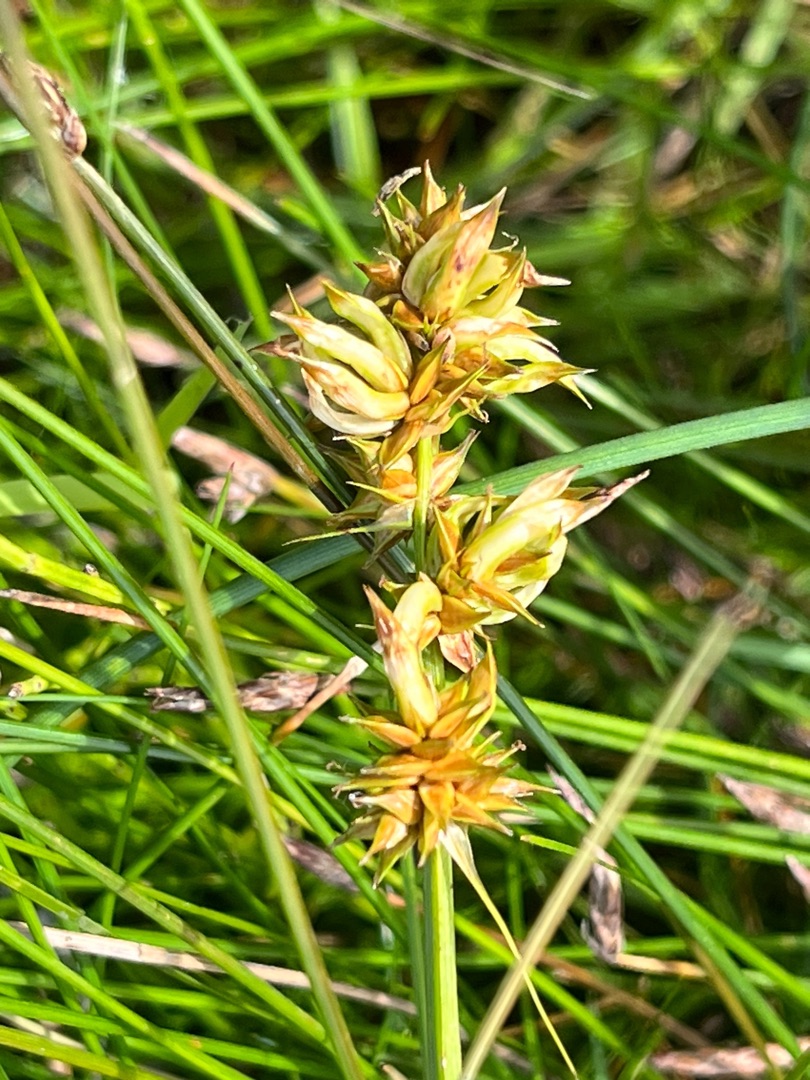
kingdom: Animalia
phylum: Arthropoda
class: Insecta
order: Diptera
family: Cecidomyiidae
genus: Dasineura
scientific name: Dasineura inflata
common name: Syltstargalmyg
